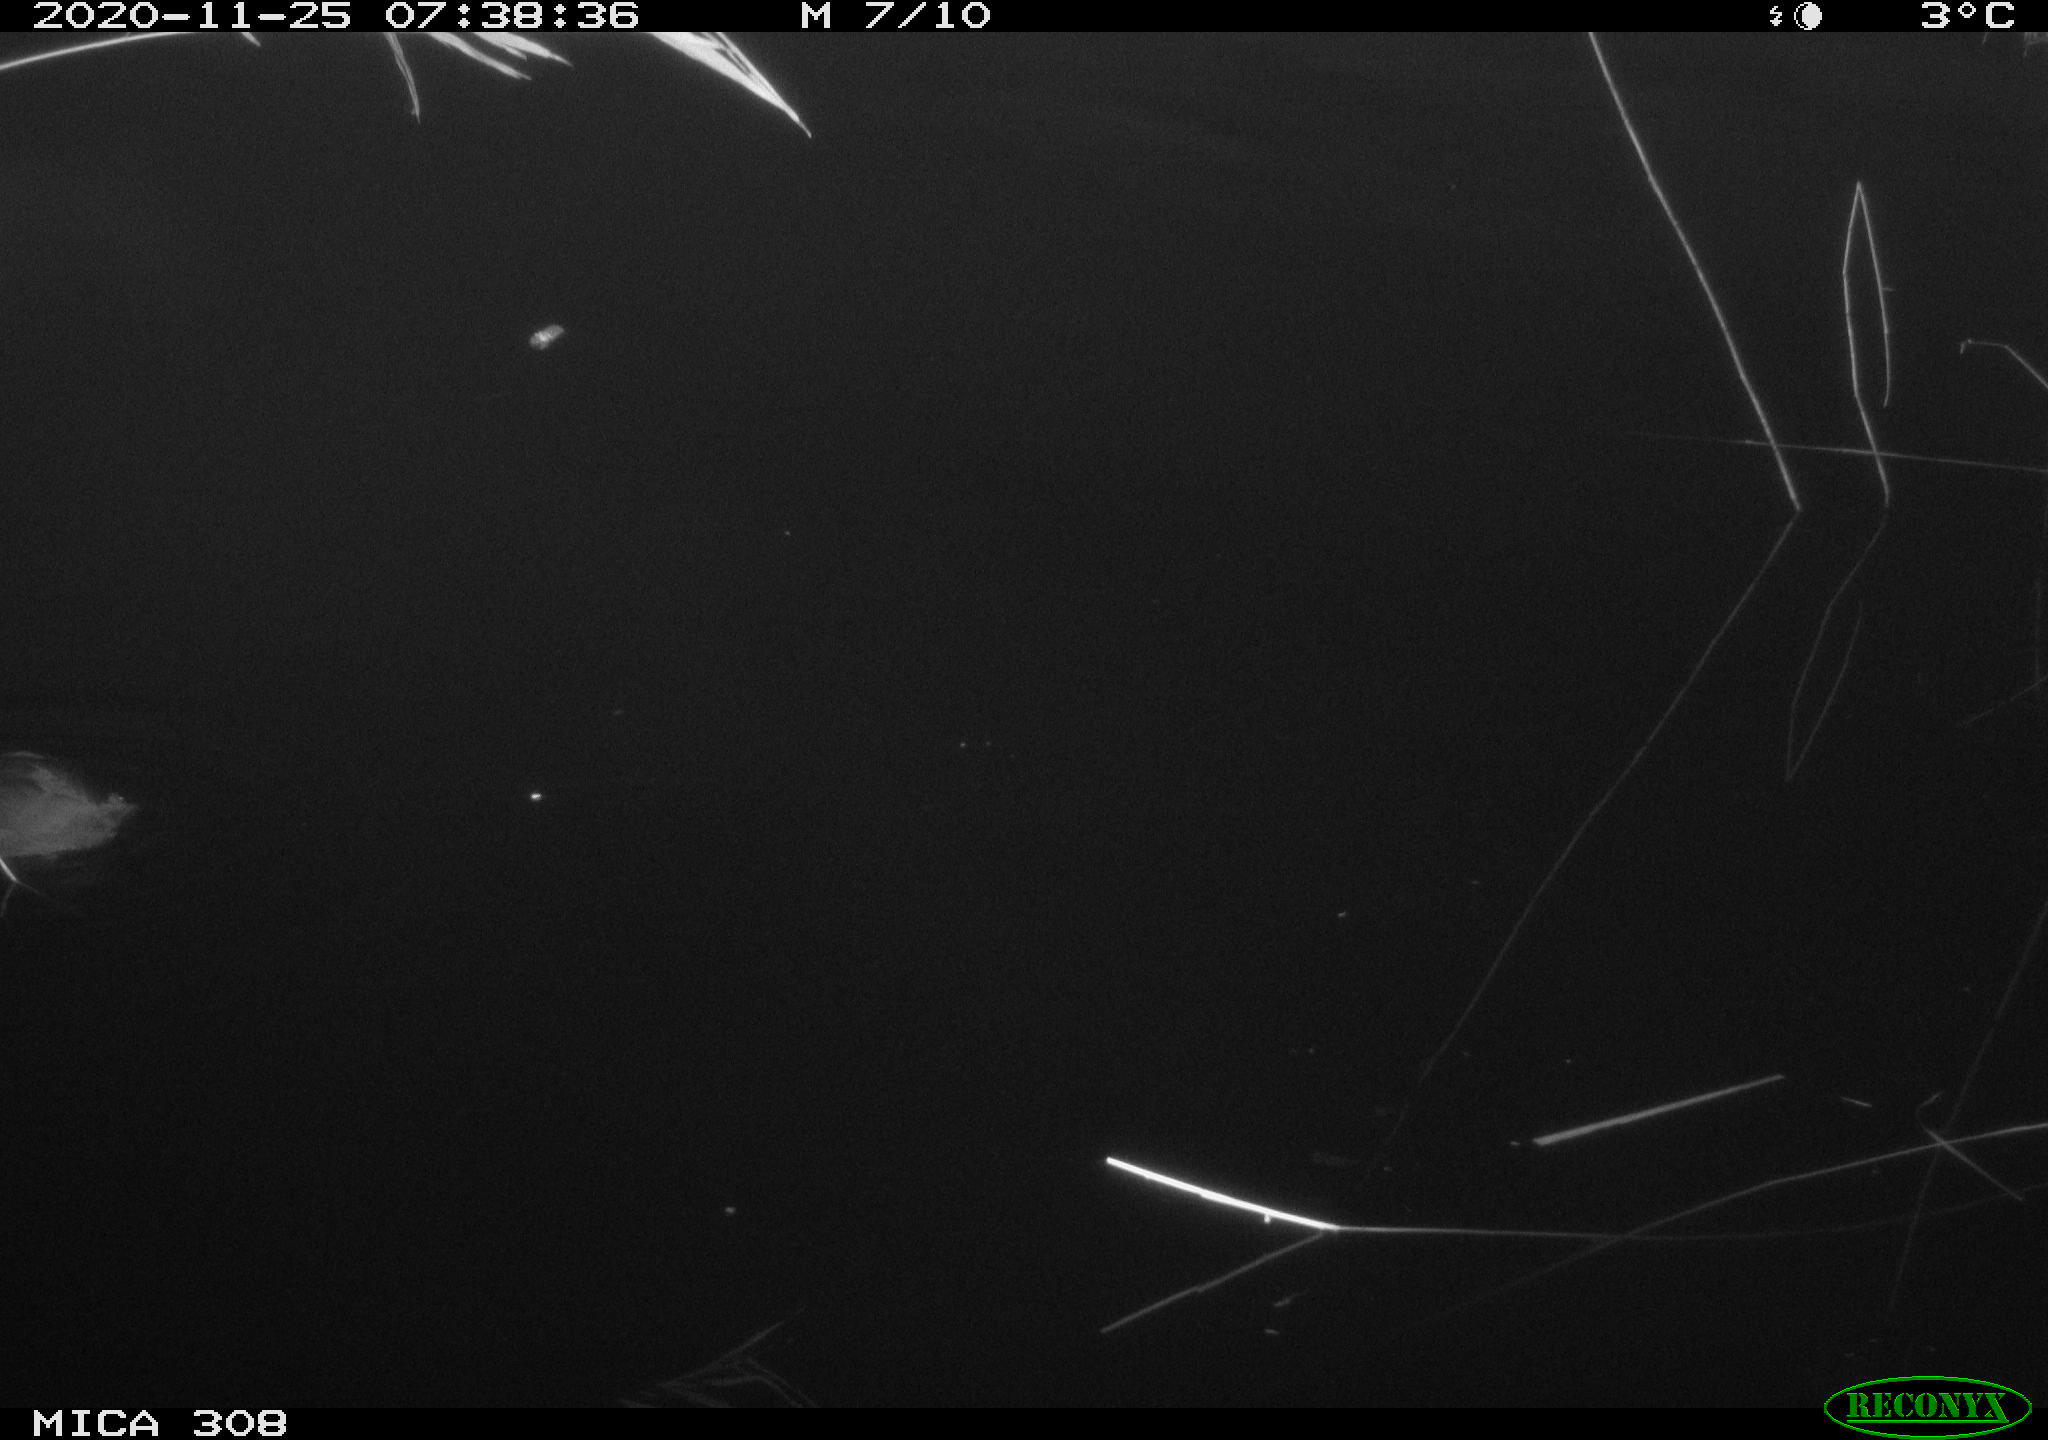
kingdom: Animalia
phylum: Chordata
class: Aves
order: Gruiformes
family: Rallidae
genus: Fulica
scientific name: Fulica atra
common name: Eurasian coot
